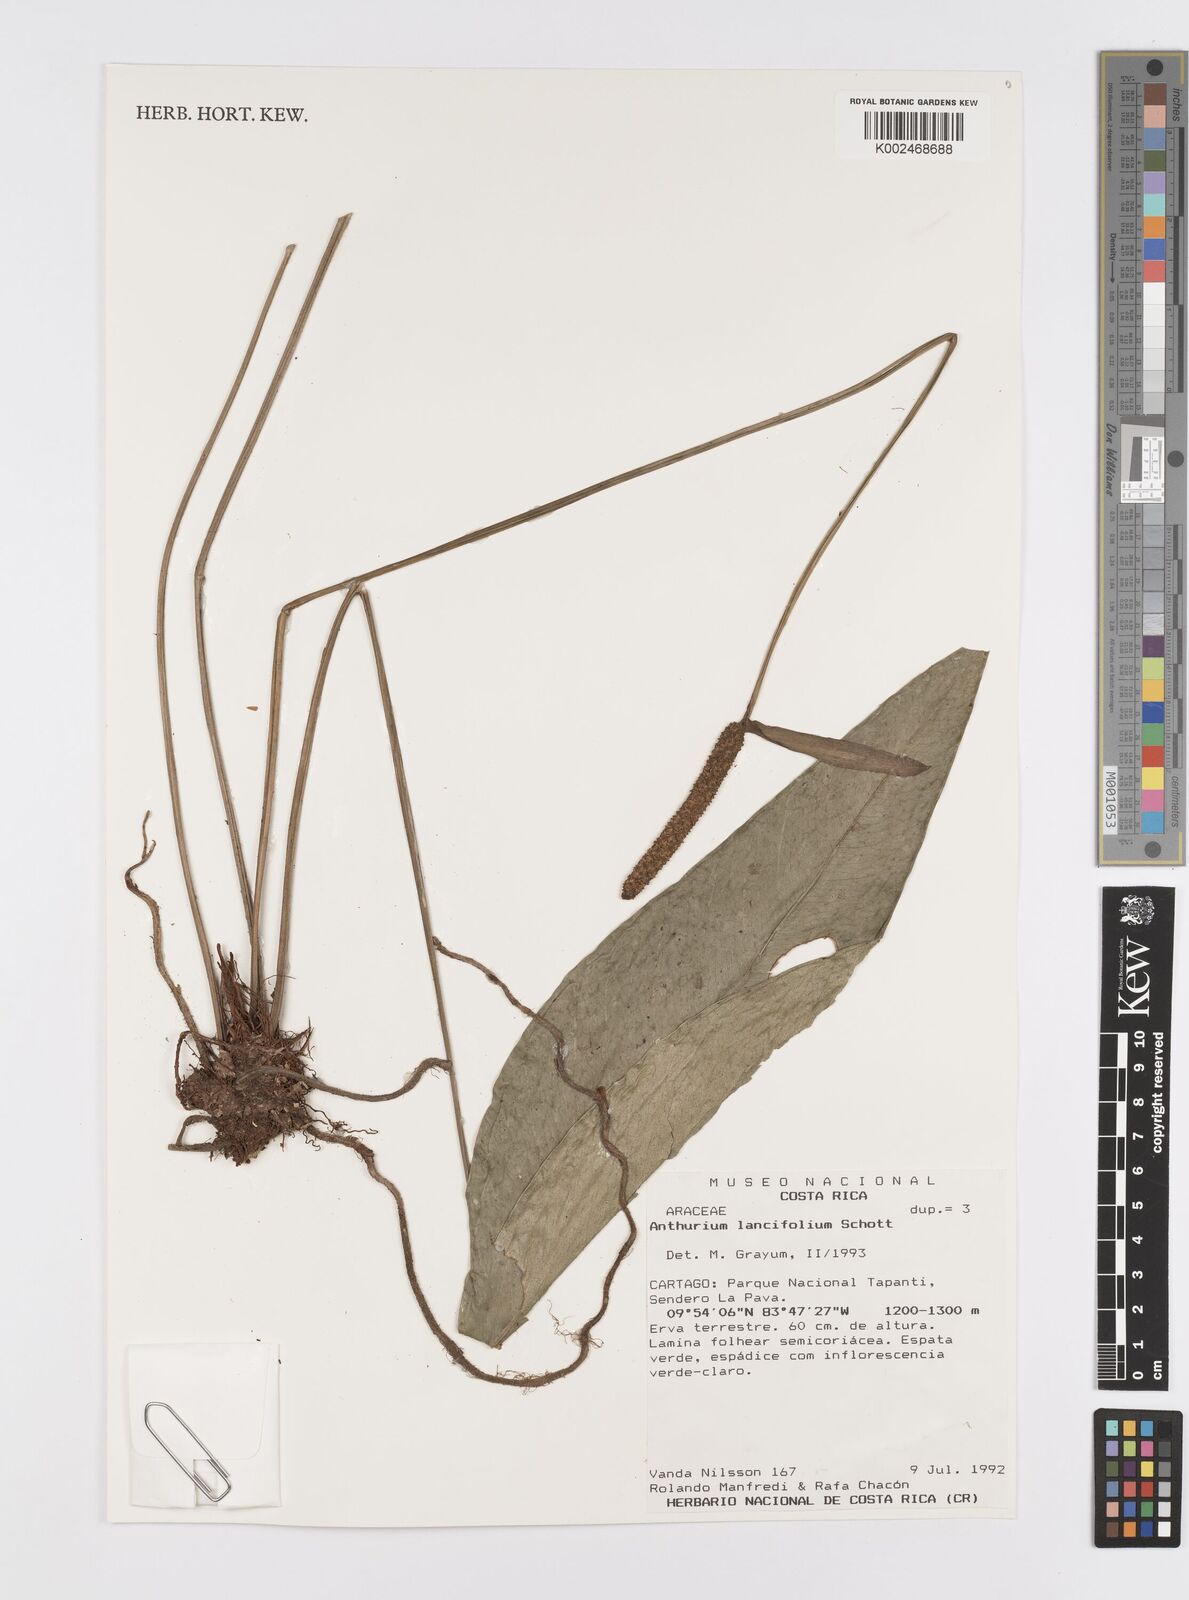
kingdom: Plantae
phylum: Tracheophyta
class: Liliopsida
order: Alismatales
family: Araceae
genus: Anthurium
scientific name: Anthurium lancifolium
